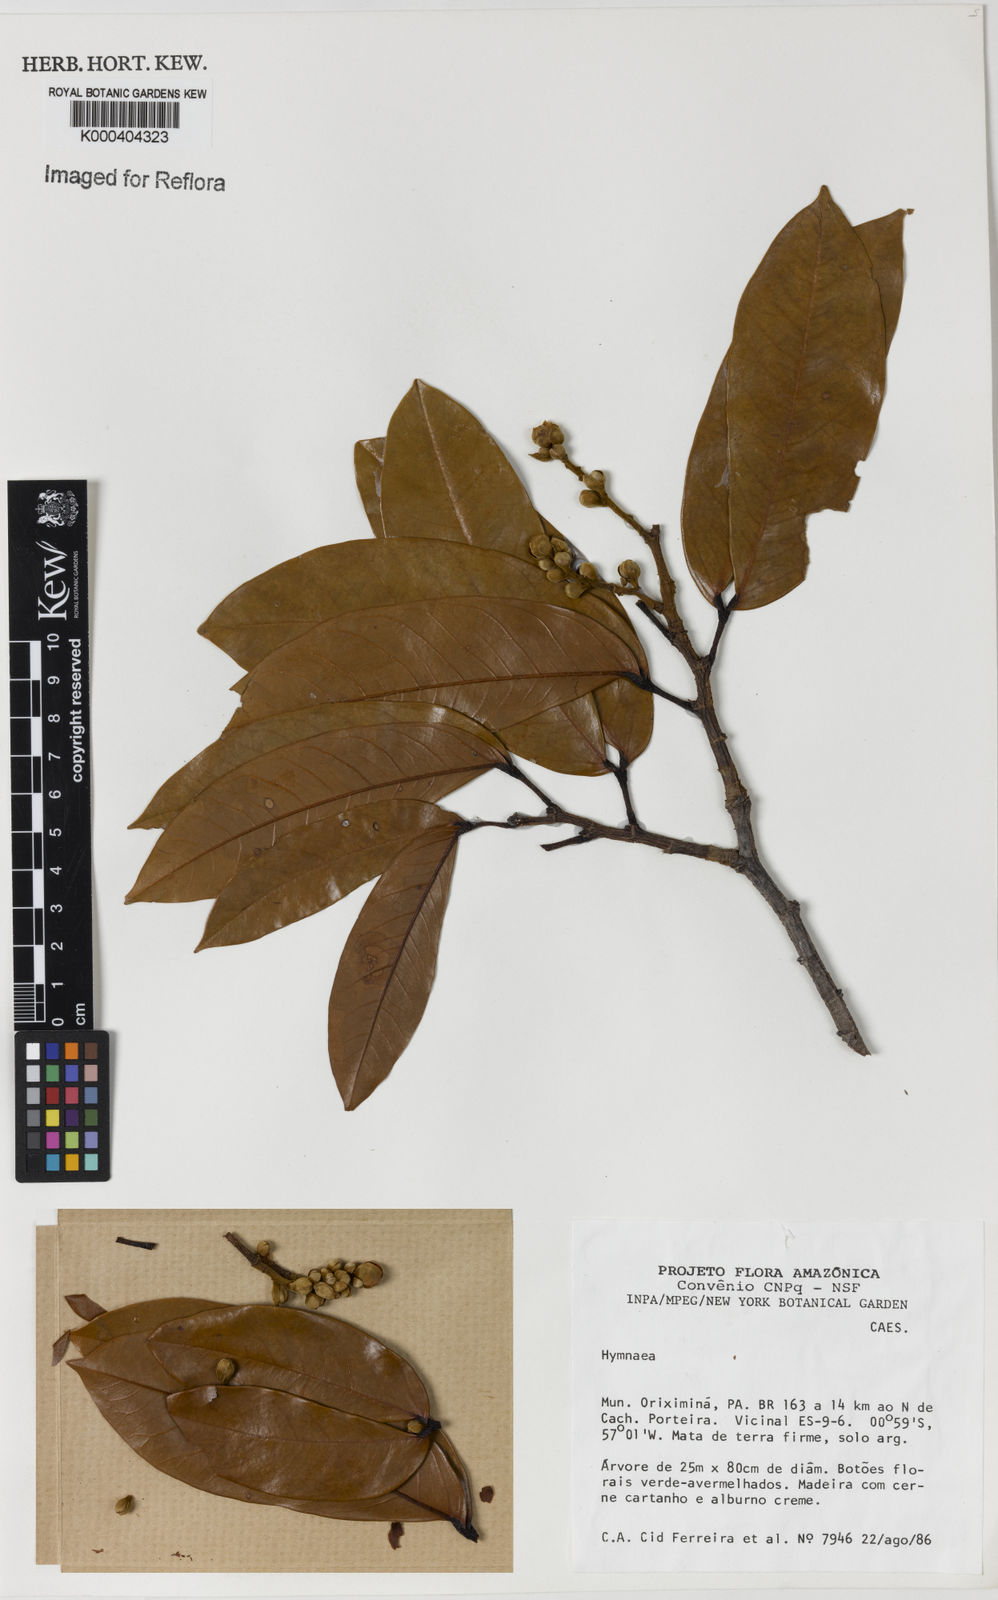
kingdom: Plantae
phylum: Tracheophyta
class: Magnoliopsida
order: Fabales
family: Fabaceae
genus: Hymenaea
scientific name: Hymenaea
